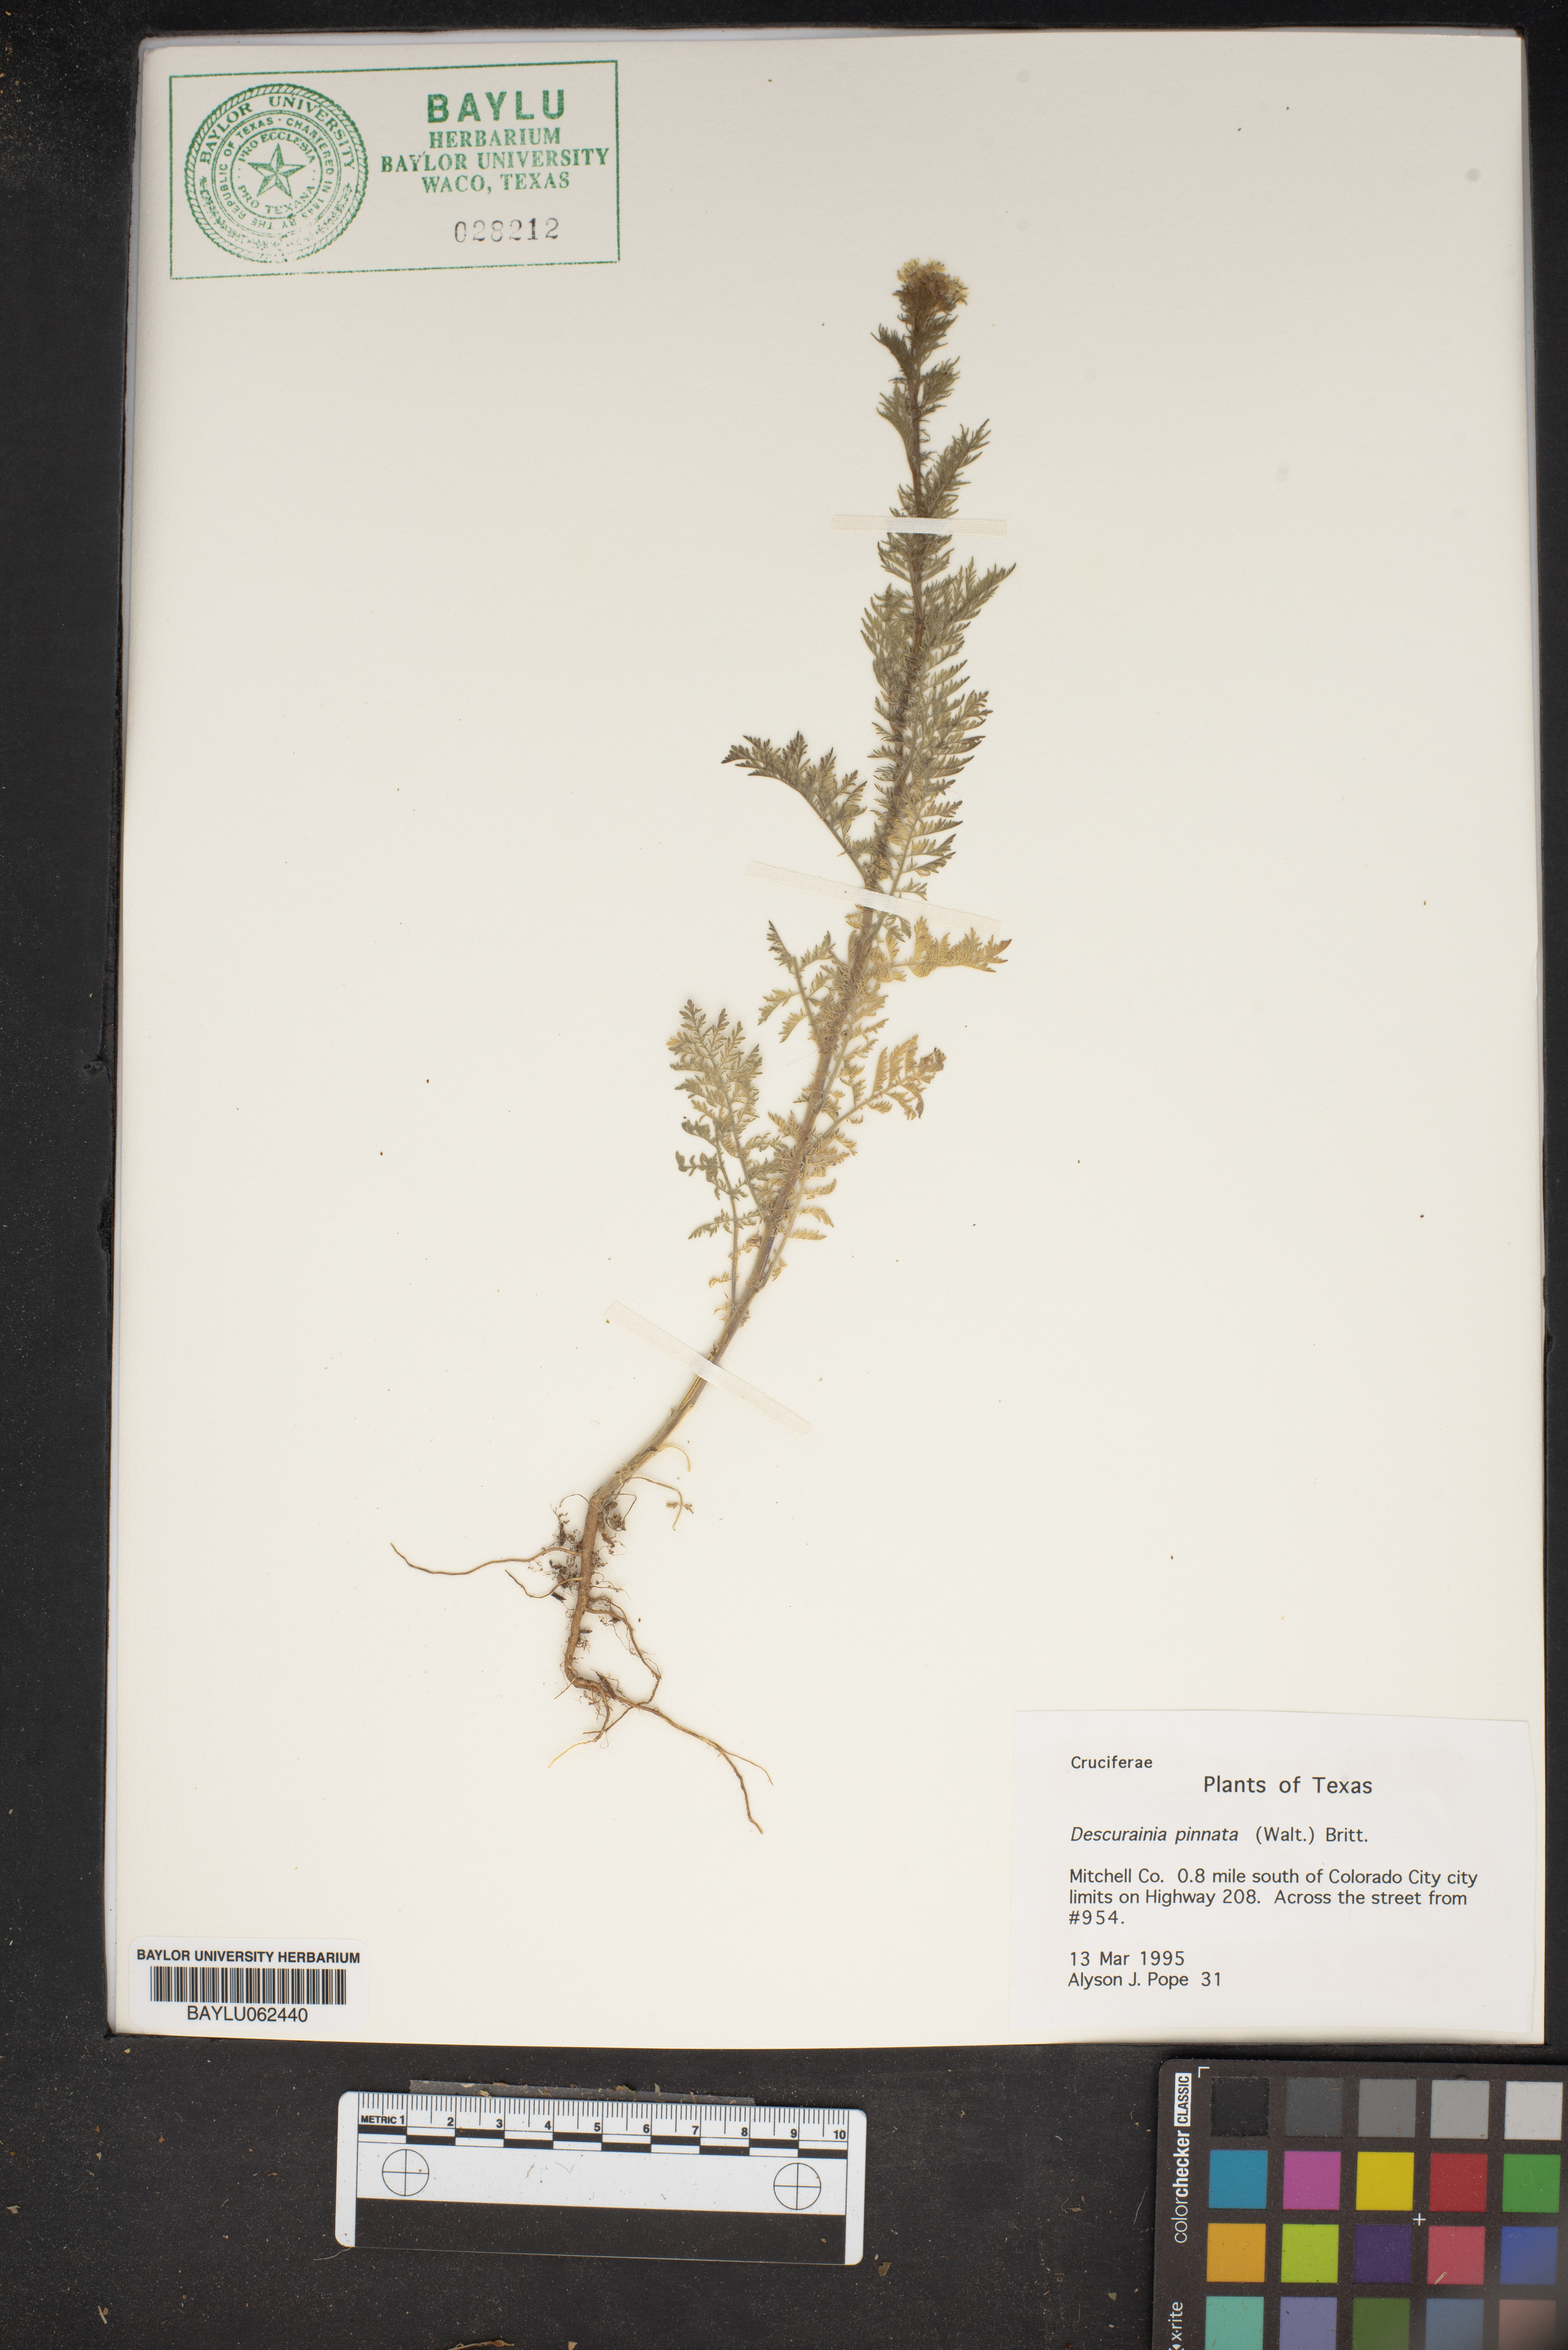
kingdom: Plantae
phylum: Tracheophyta
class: Magnoliopsida
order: Brassicales
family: Brassicaceae
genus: Descurainia
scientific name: Descurainia pinnata
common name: Western tansy mustard
